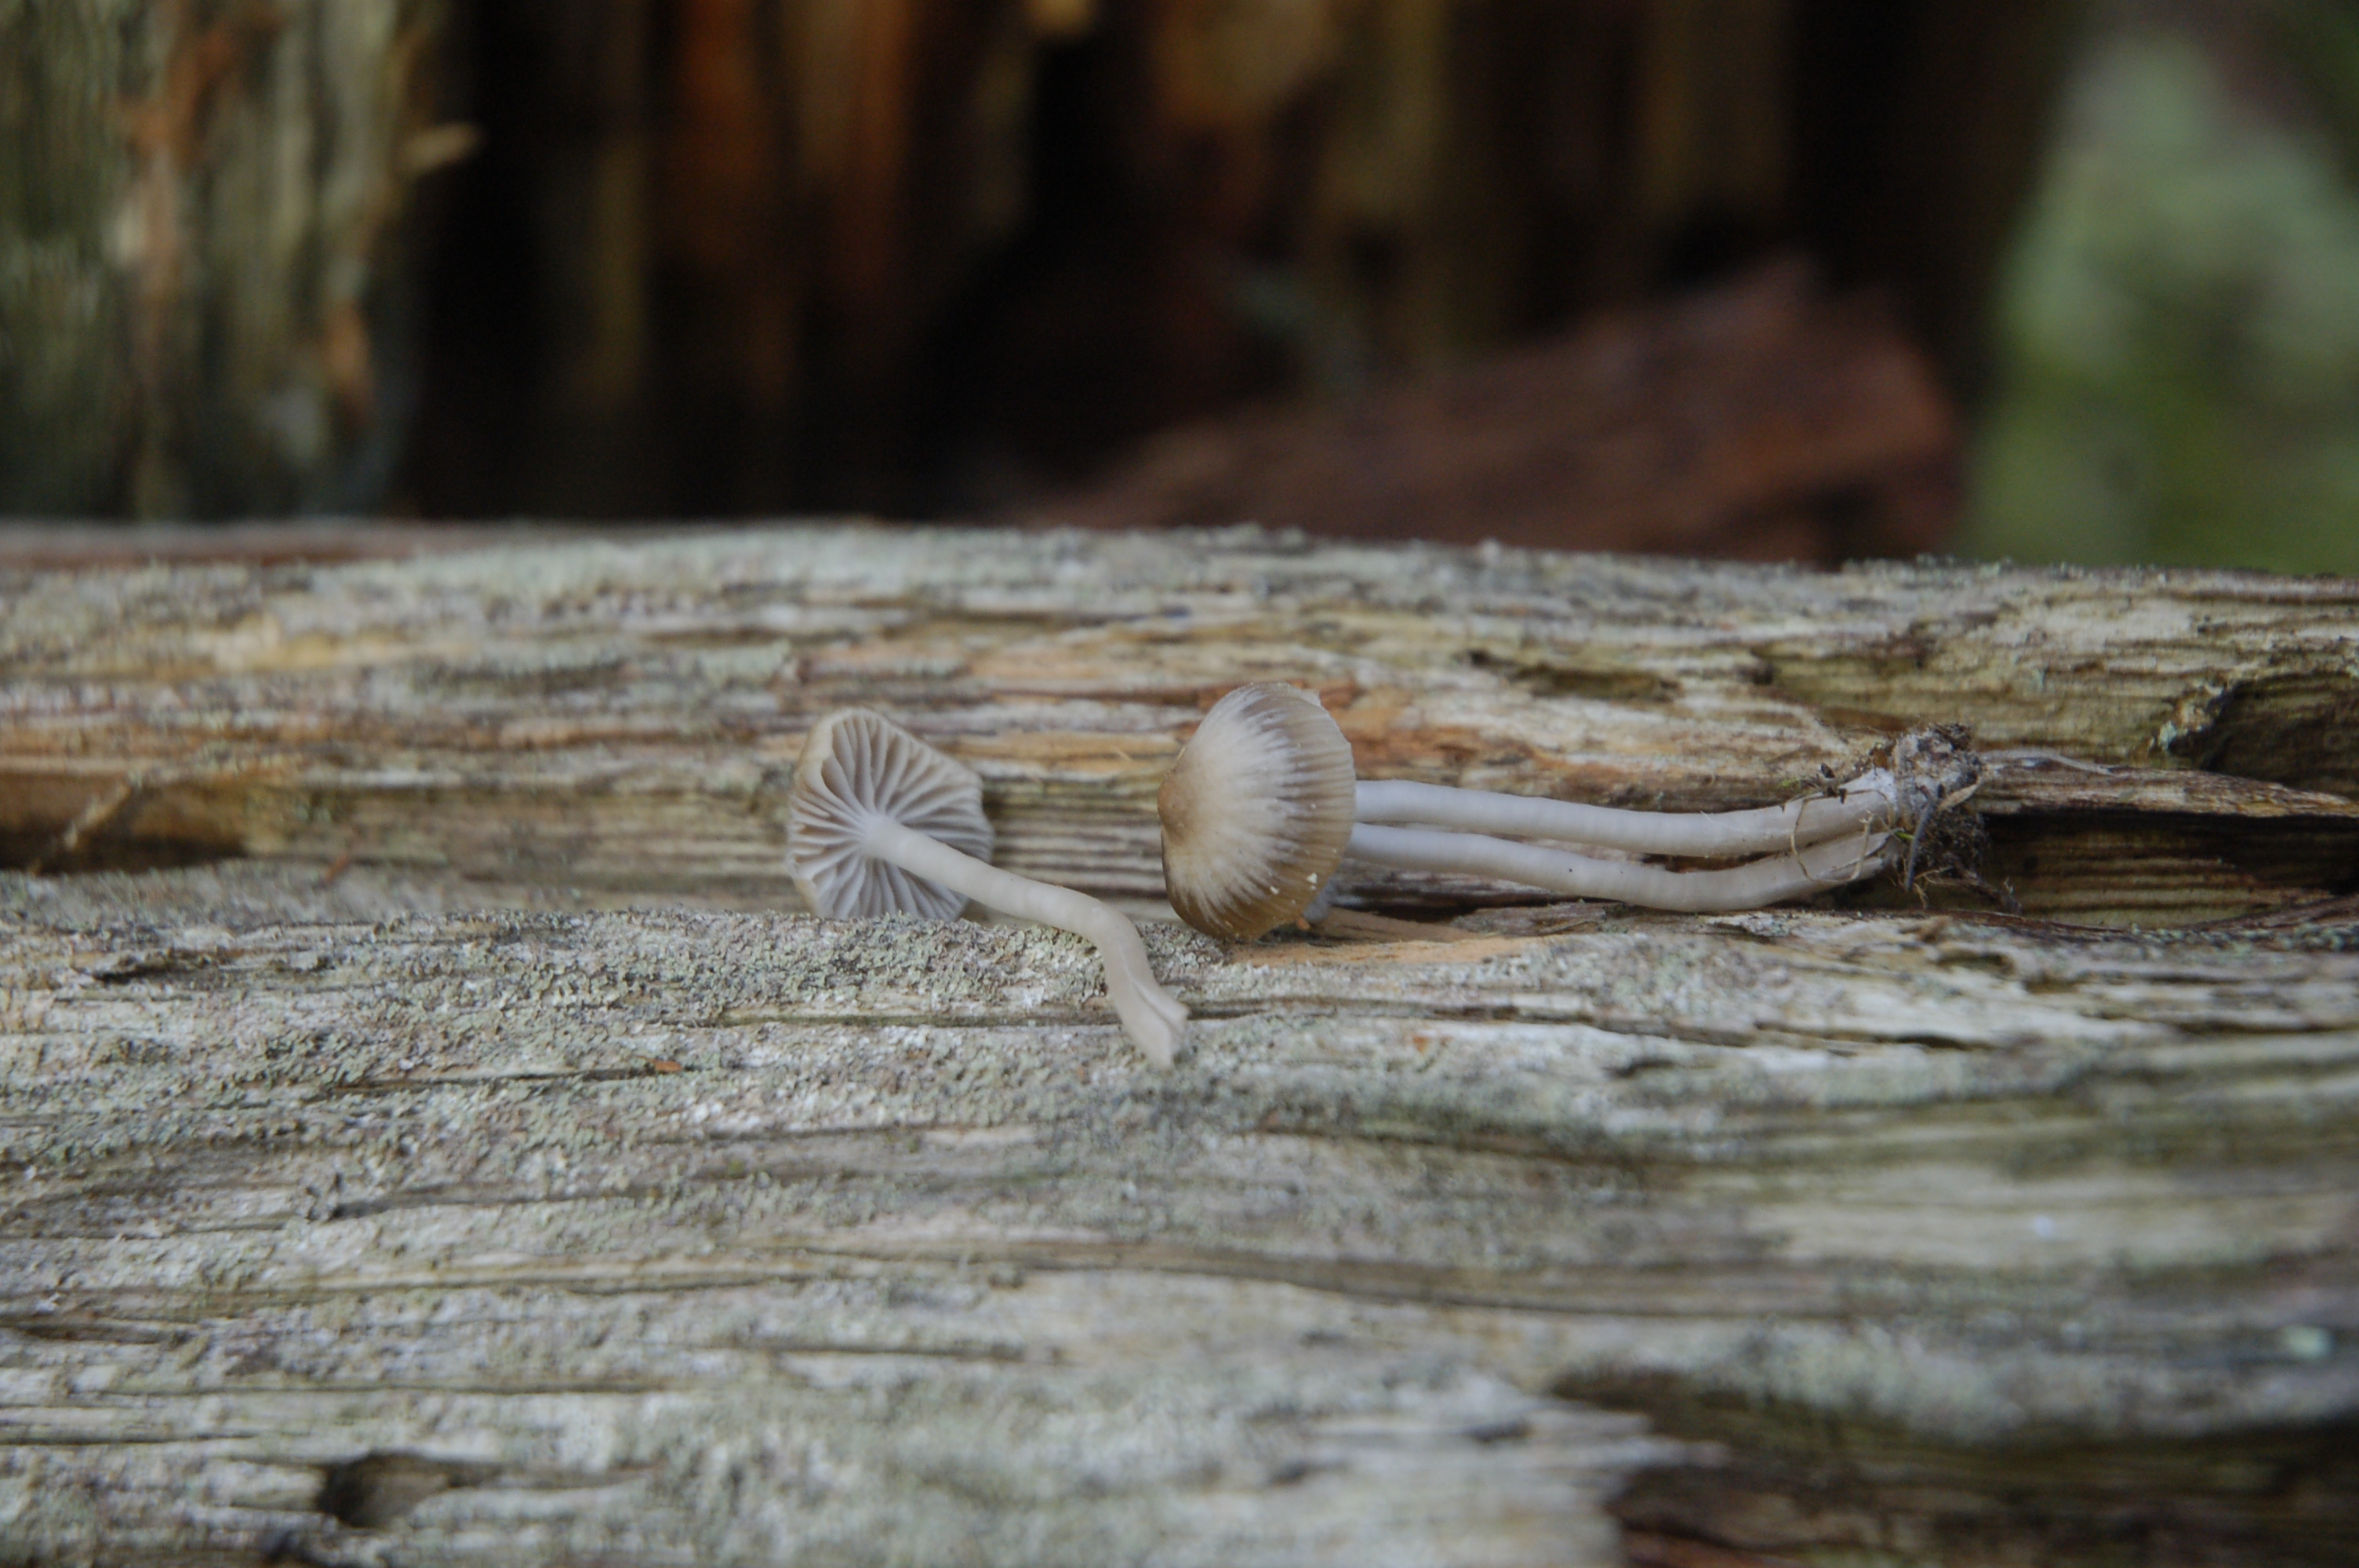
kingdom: Fungi
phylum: Basidiomycota
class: Agaricomycetes
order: Agaricales
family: Tricholomataceae
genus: Fayodia
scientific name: Fayodia bisphaerigera
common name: Slender navel
